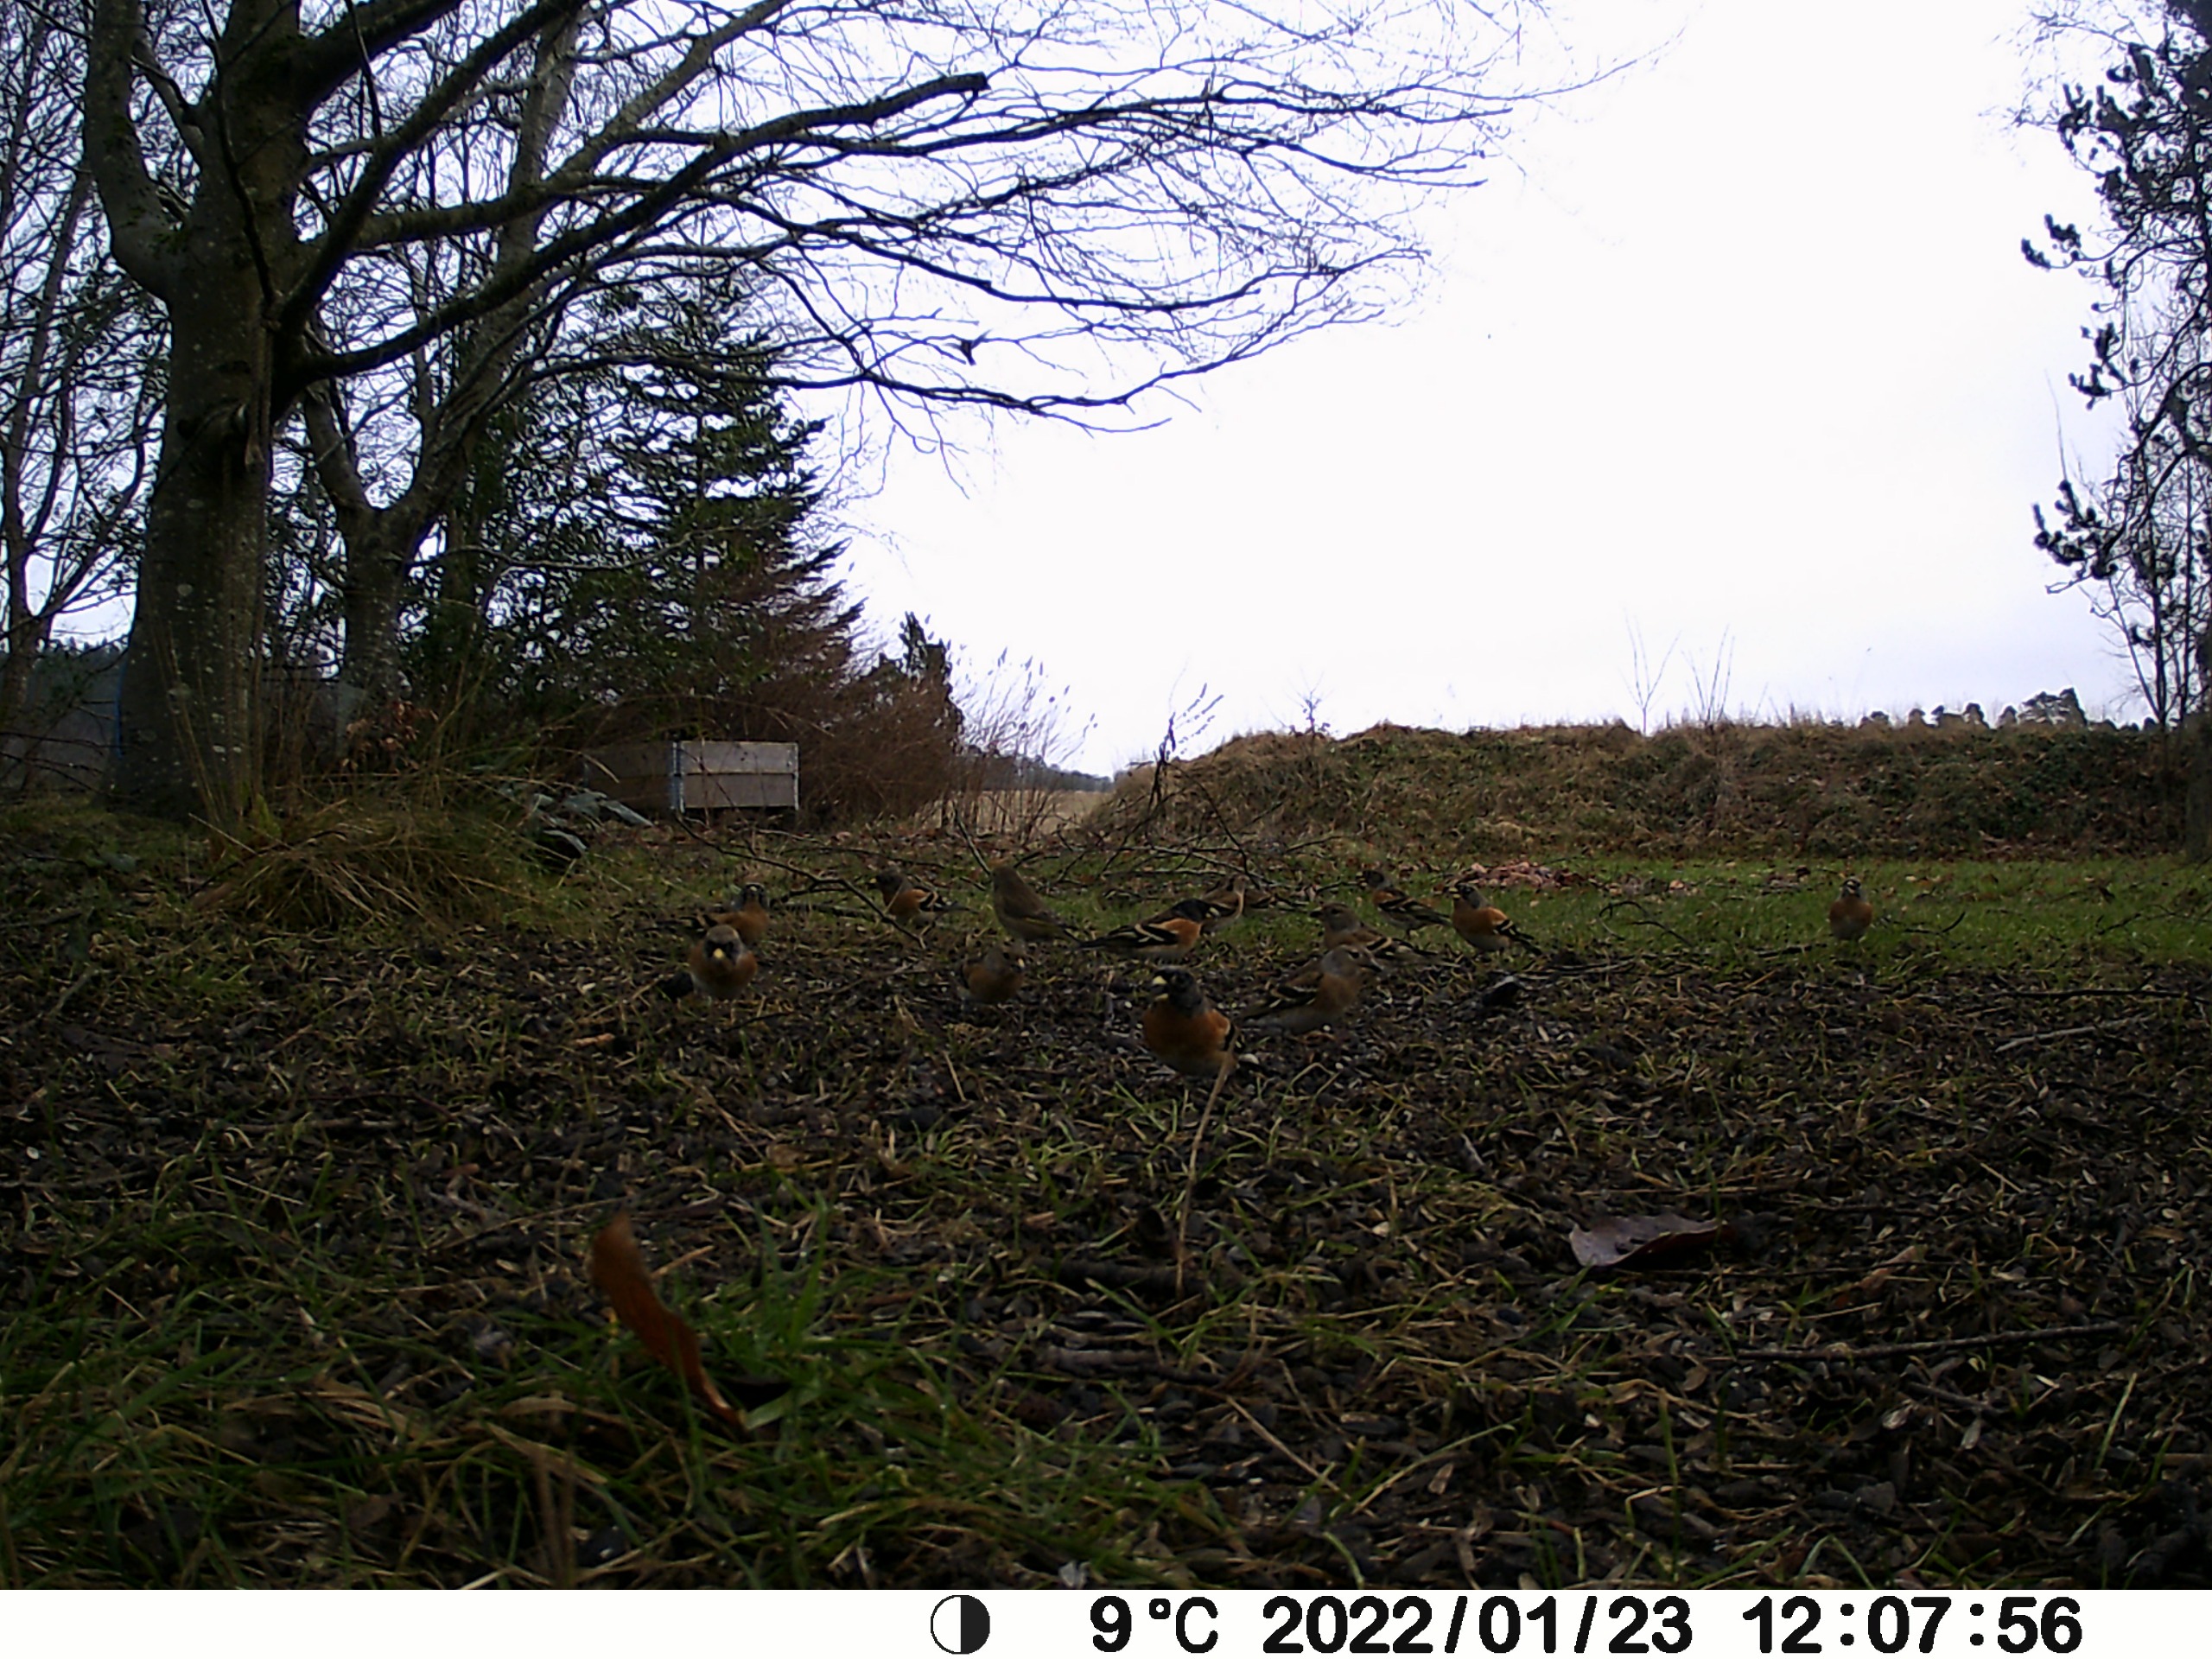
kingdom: Animalia
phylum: Chordata
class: Aves
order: Passeriformes
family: Fringillidae
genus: Fringilla
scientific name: Fringilla montifringilla
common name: Kvækerfinke
